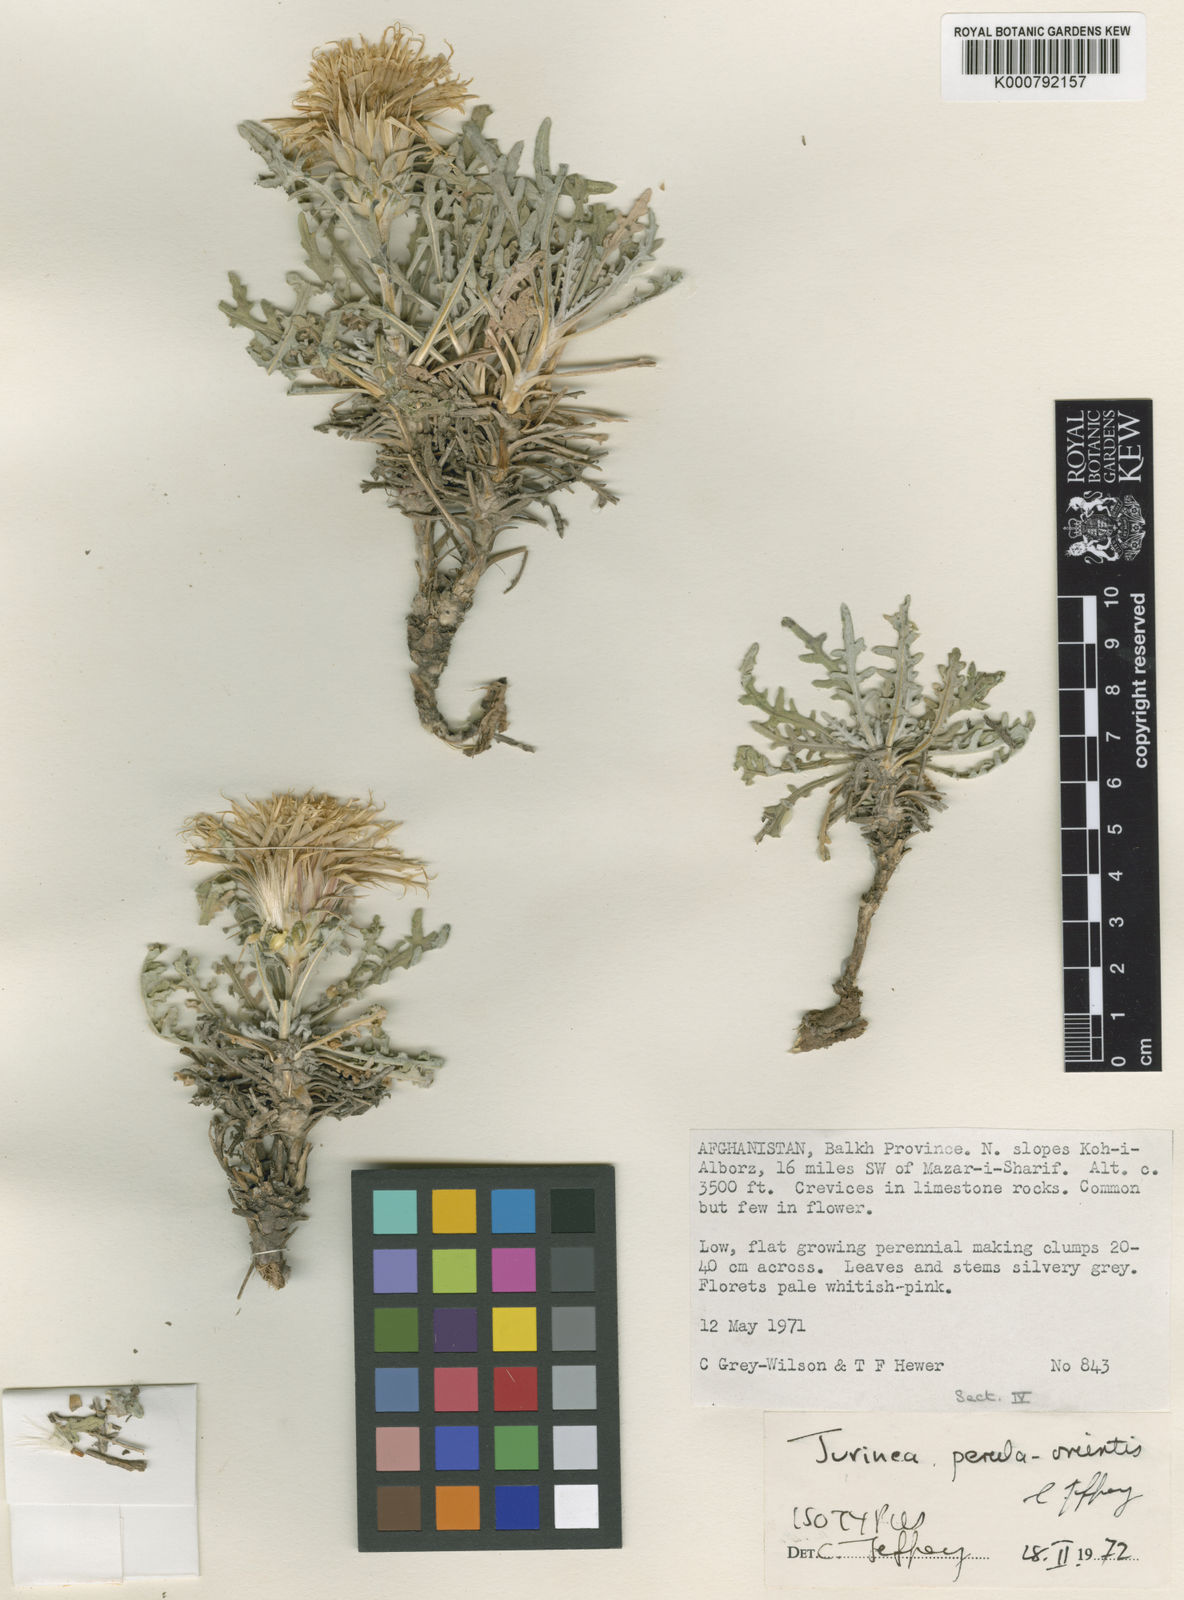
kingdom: Plantae
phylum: Tracheophyta
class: Magnoliopsida
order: Asterales
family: Asteraceae
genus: Jurinea
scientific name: Jurinea perula-orientis
